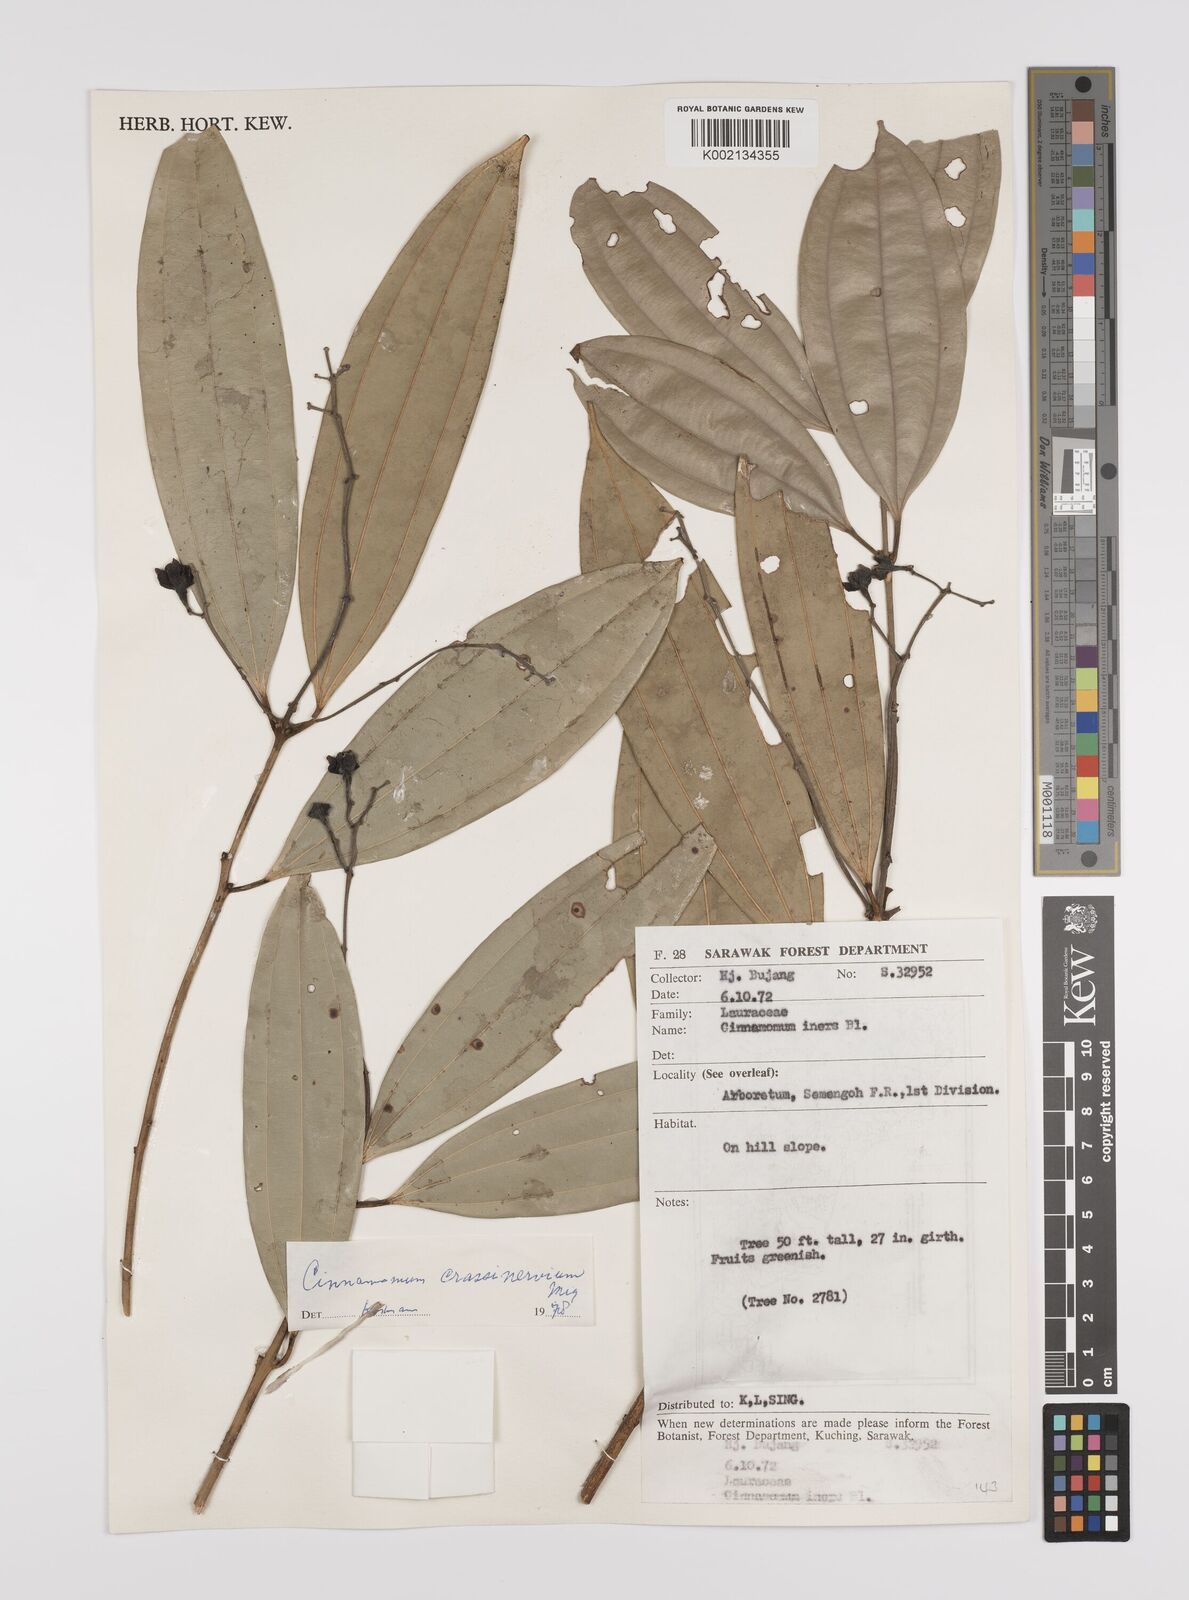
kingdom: Plantae
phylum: Tracheophyta
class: Magnoliopsida
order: Laurales
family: Lauraceae
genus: Cinnamomum
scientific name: Cinnamomum crassinervium
